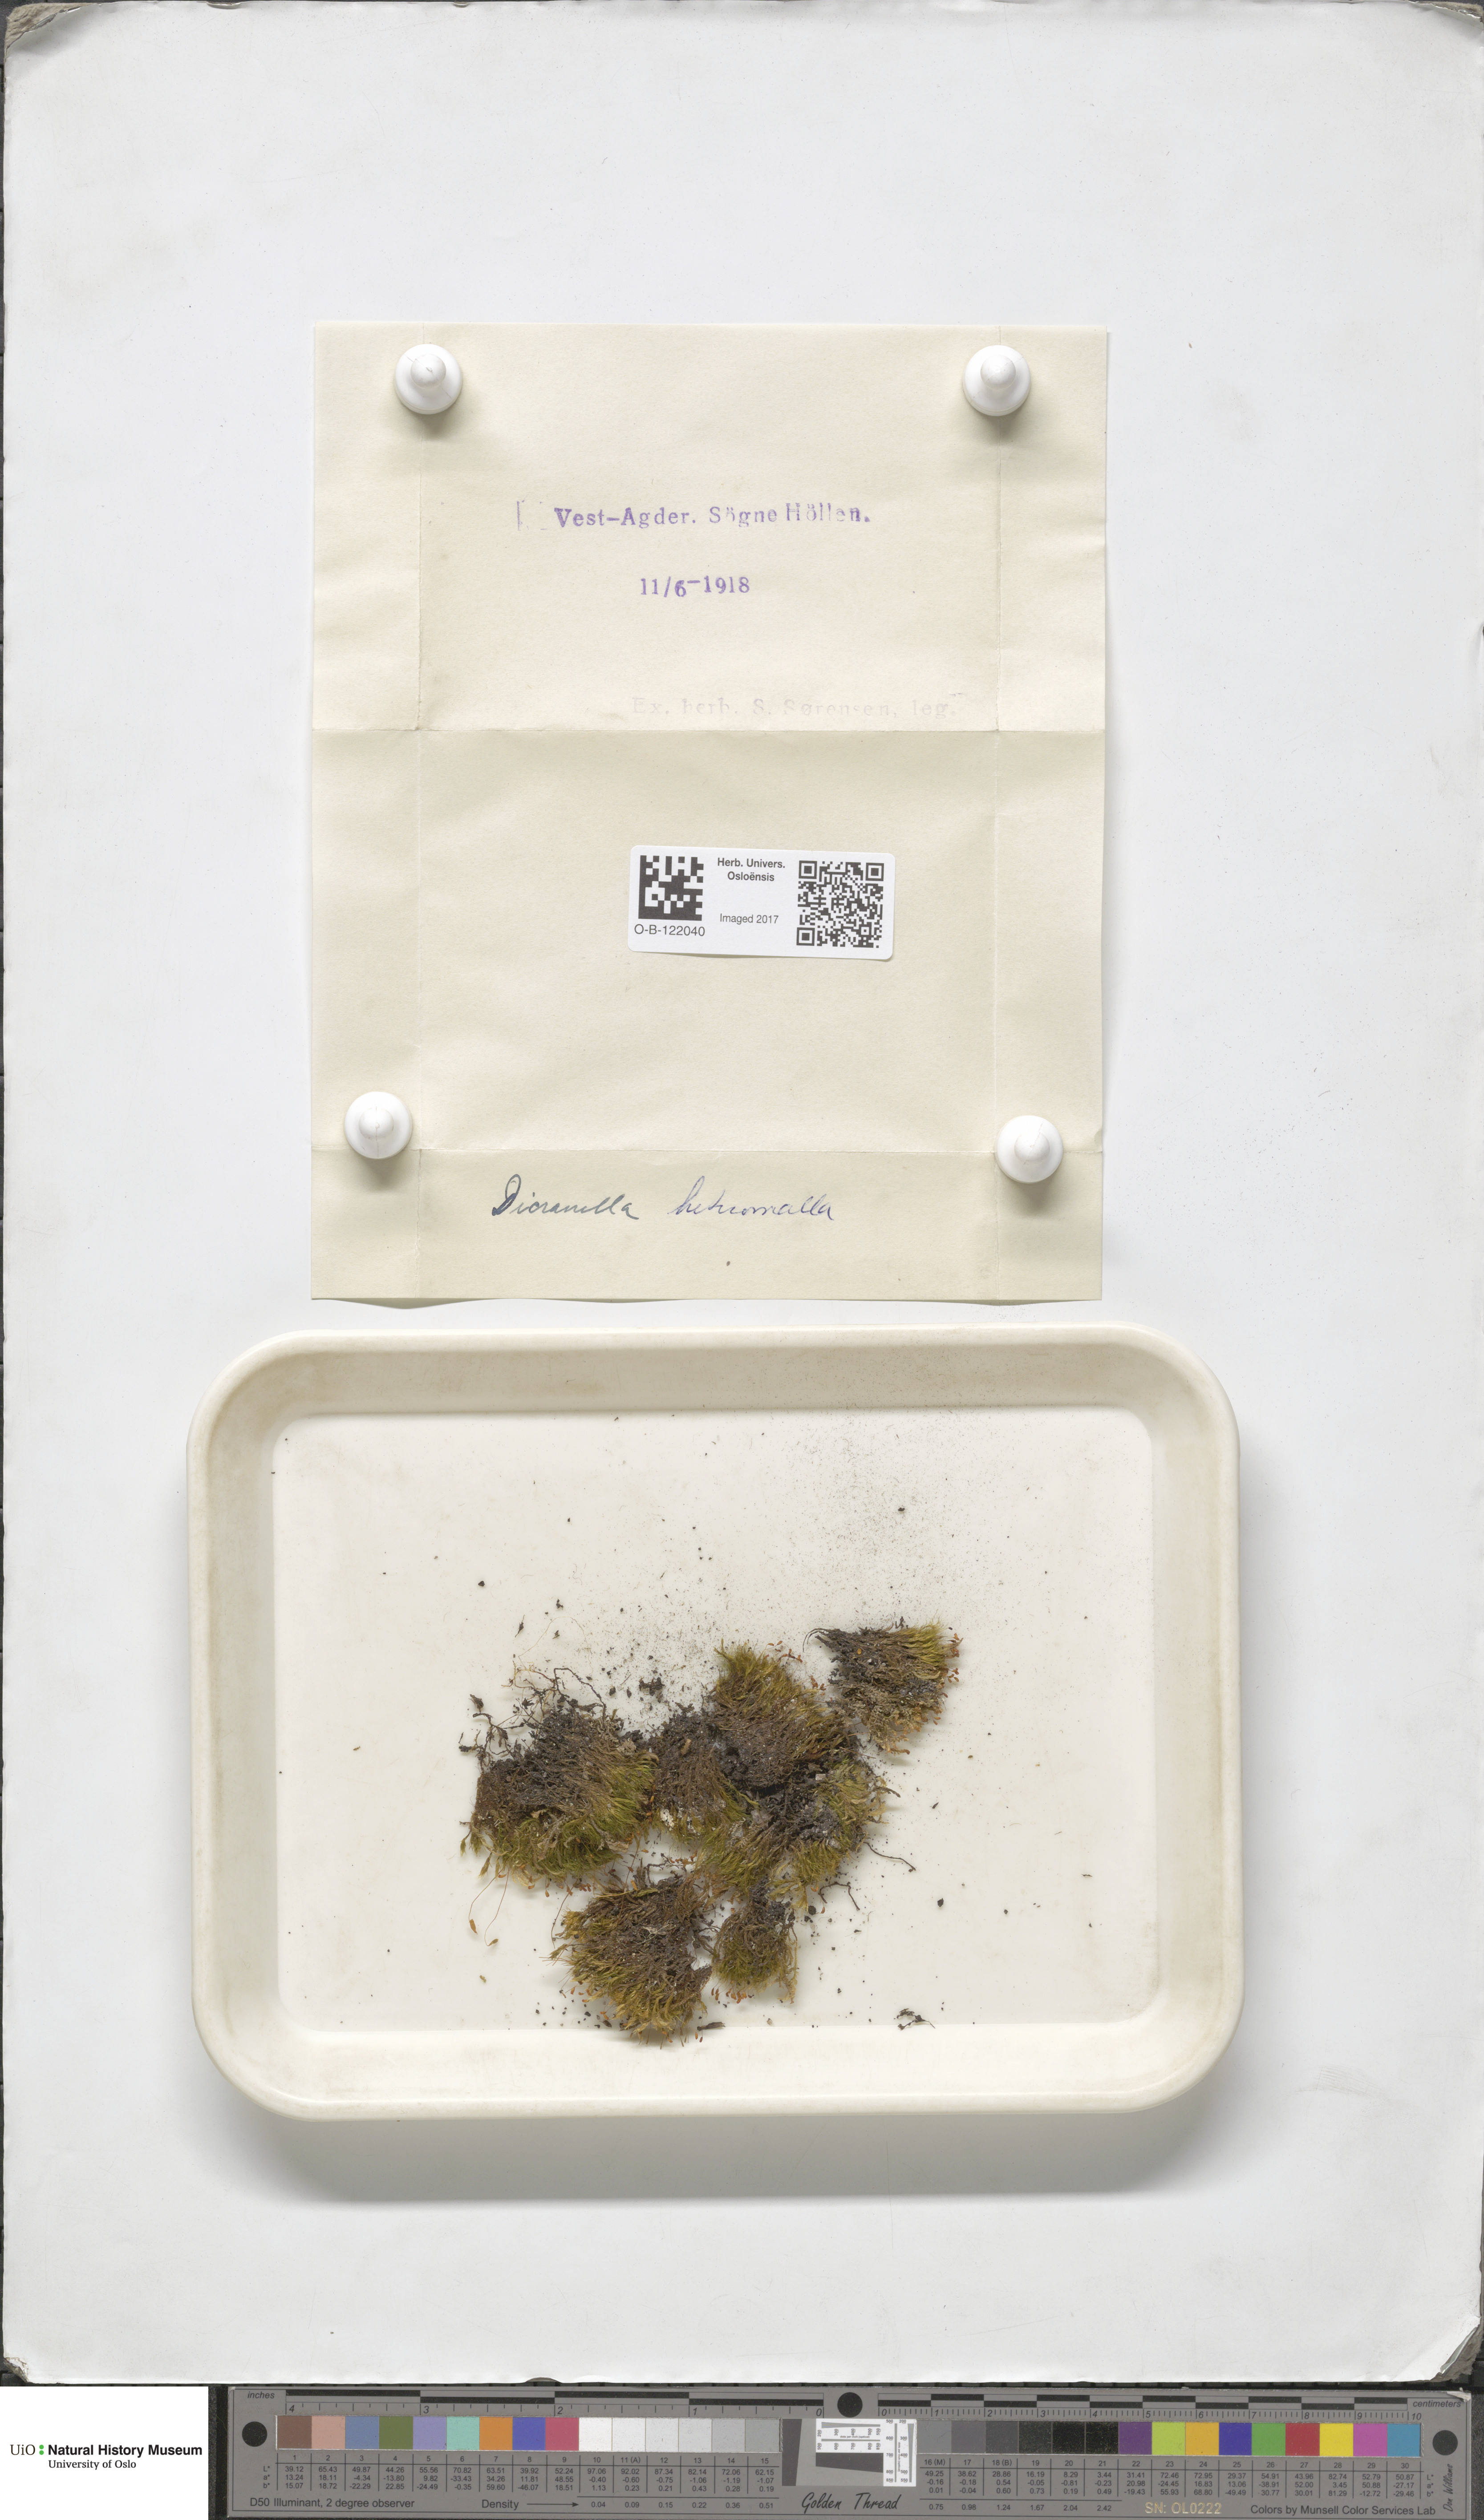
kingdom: Plantae
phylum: Bryophyta
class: Bryopsida
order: Dicranales
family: Dicranellaceae
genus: Dicranella
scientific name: Dicranella heteromalla
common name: Silky forklet moss
